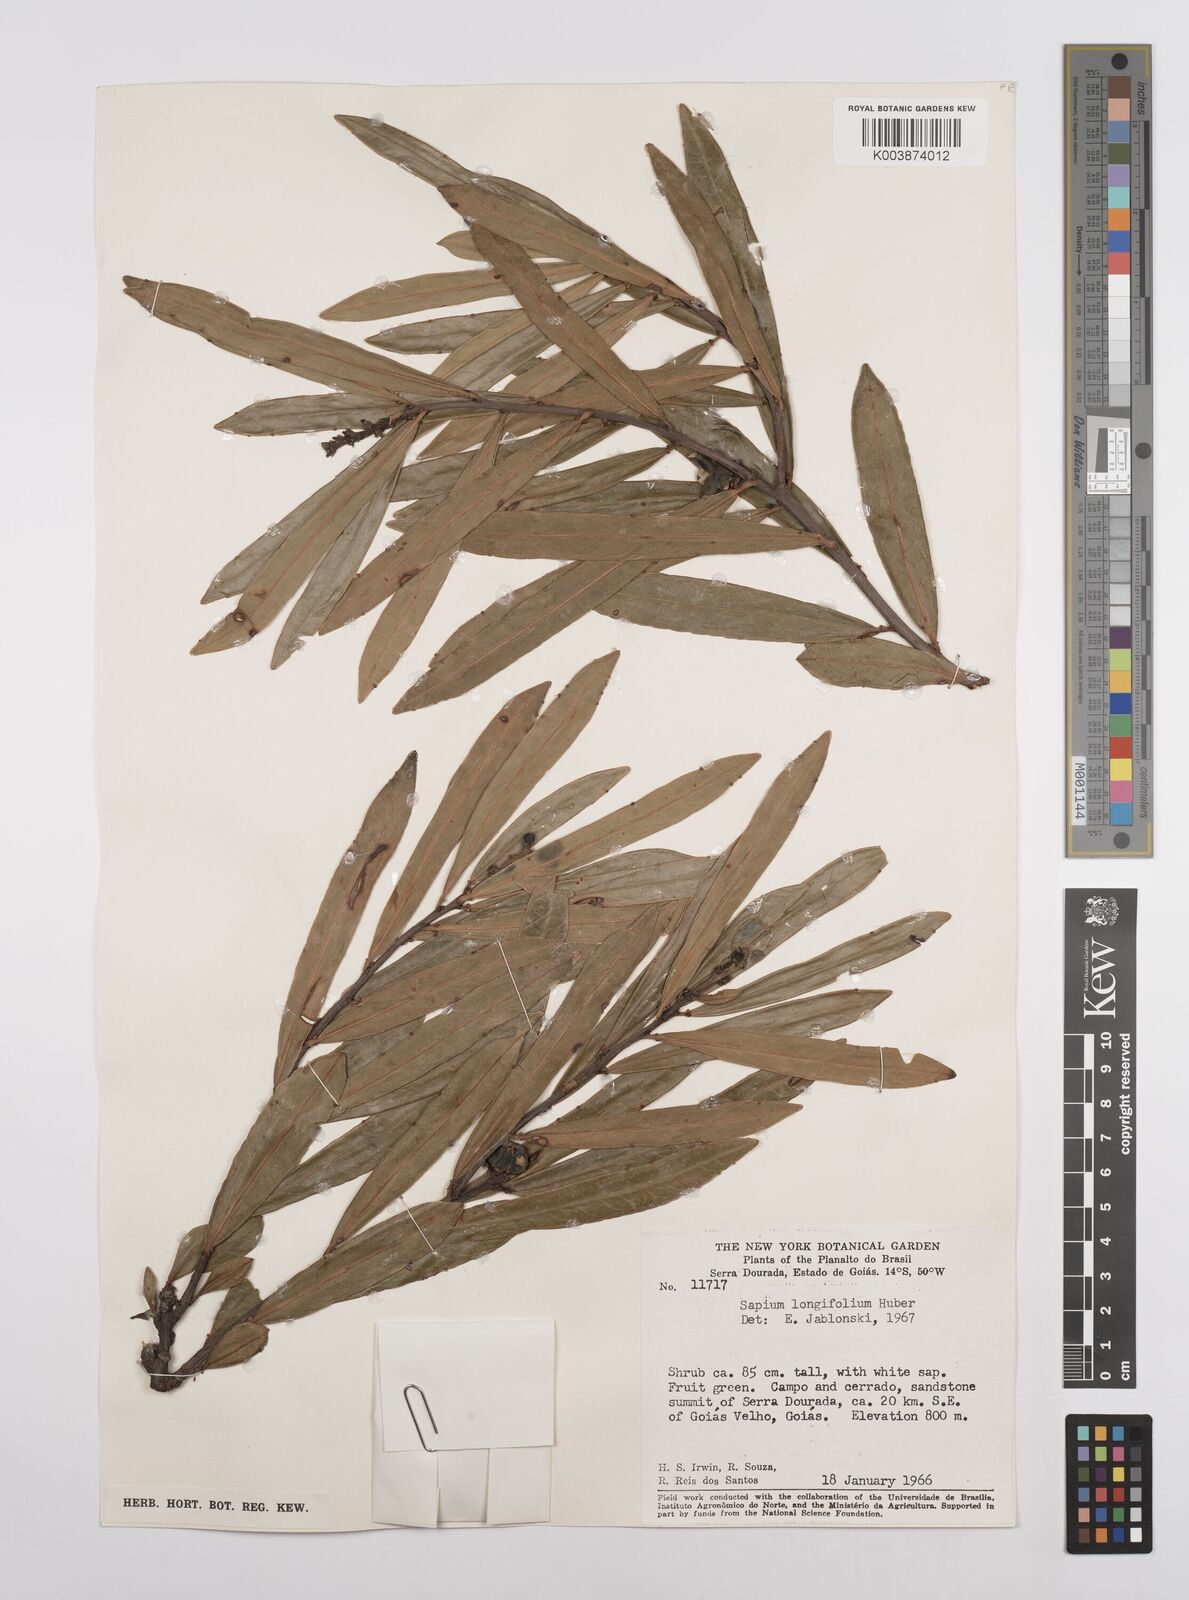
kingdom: Plantae
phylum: Tracheophyta
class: Magnoliopsida
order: Malpighiales
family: Euphorbiaceae
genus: Sapium
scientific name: Sapium haematospermum
